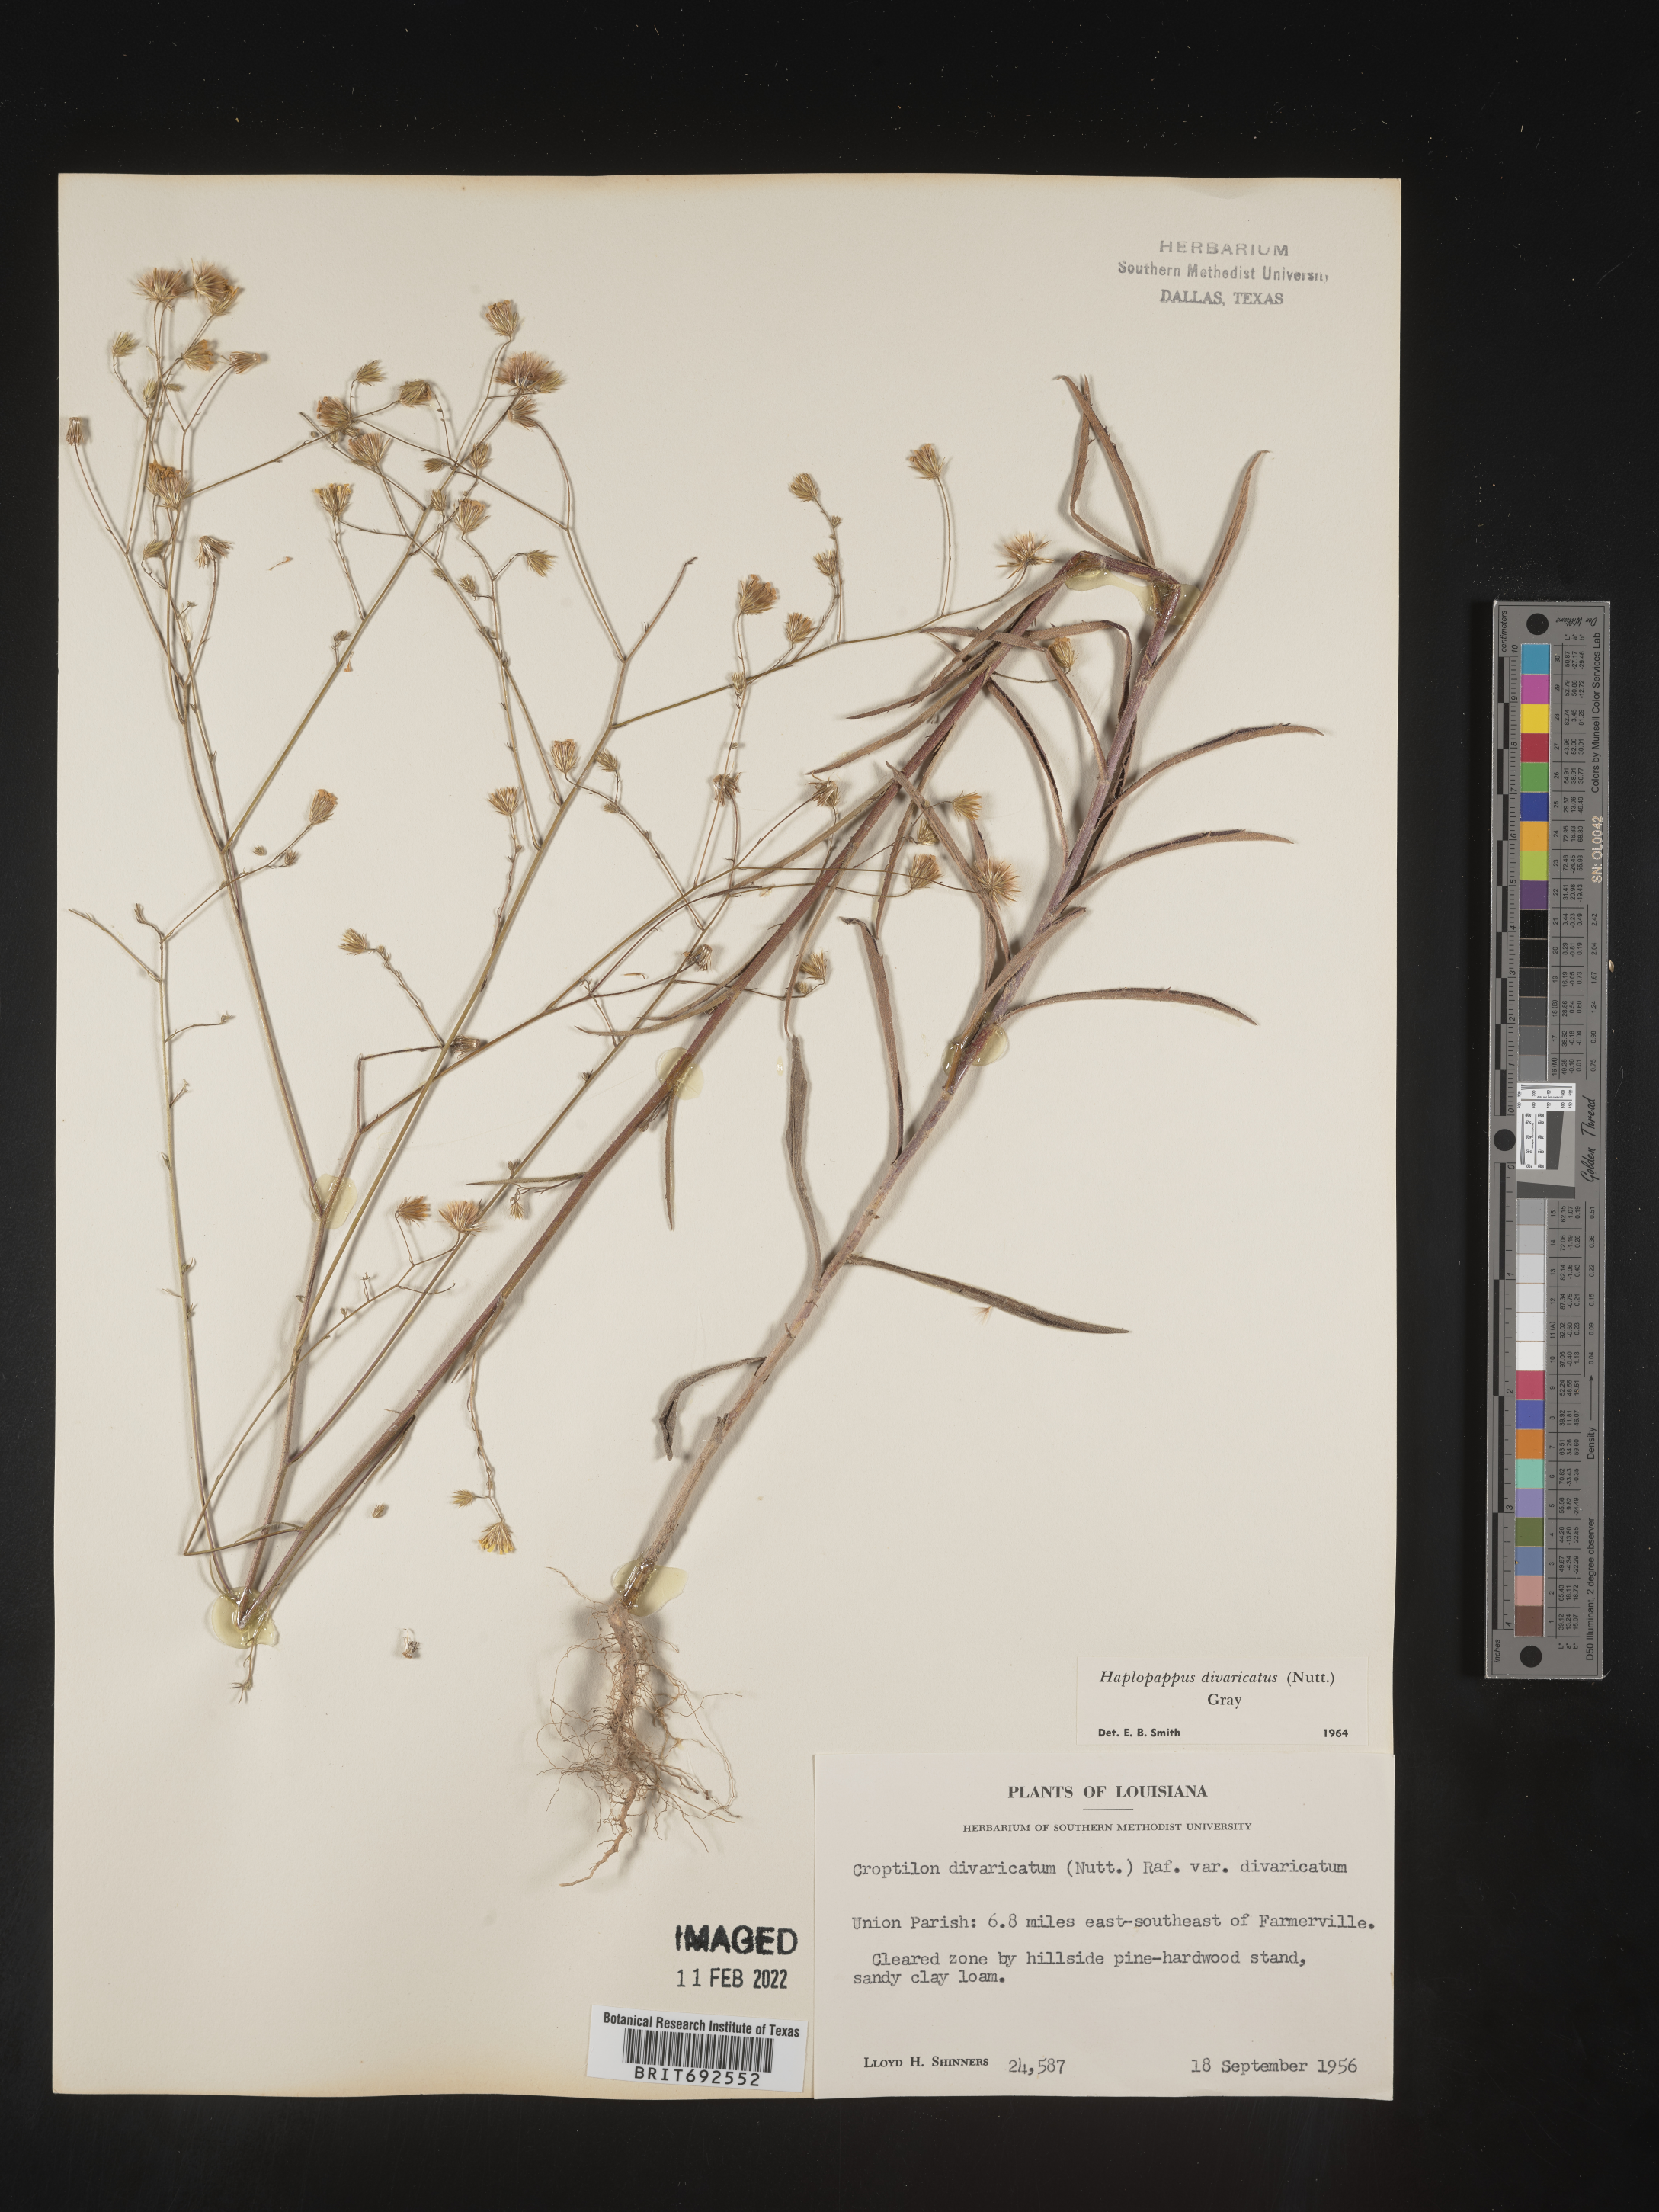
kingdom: Plantae
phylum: Tracheophyta
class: Magnoliopsida
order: Asterales
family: Asteraceae
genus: Croptilon
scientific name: Croptilon divaricatum
